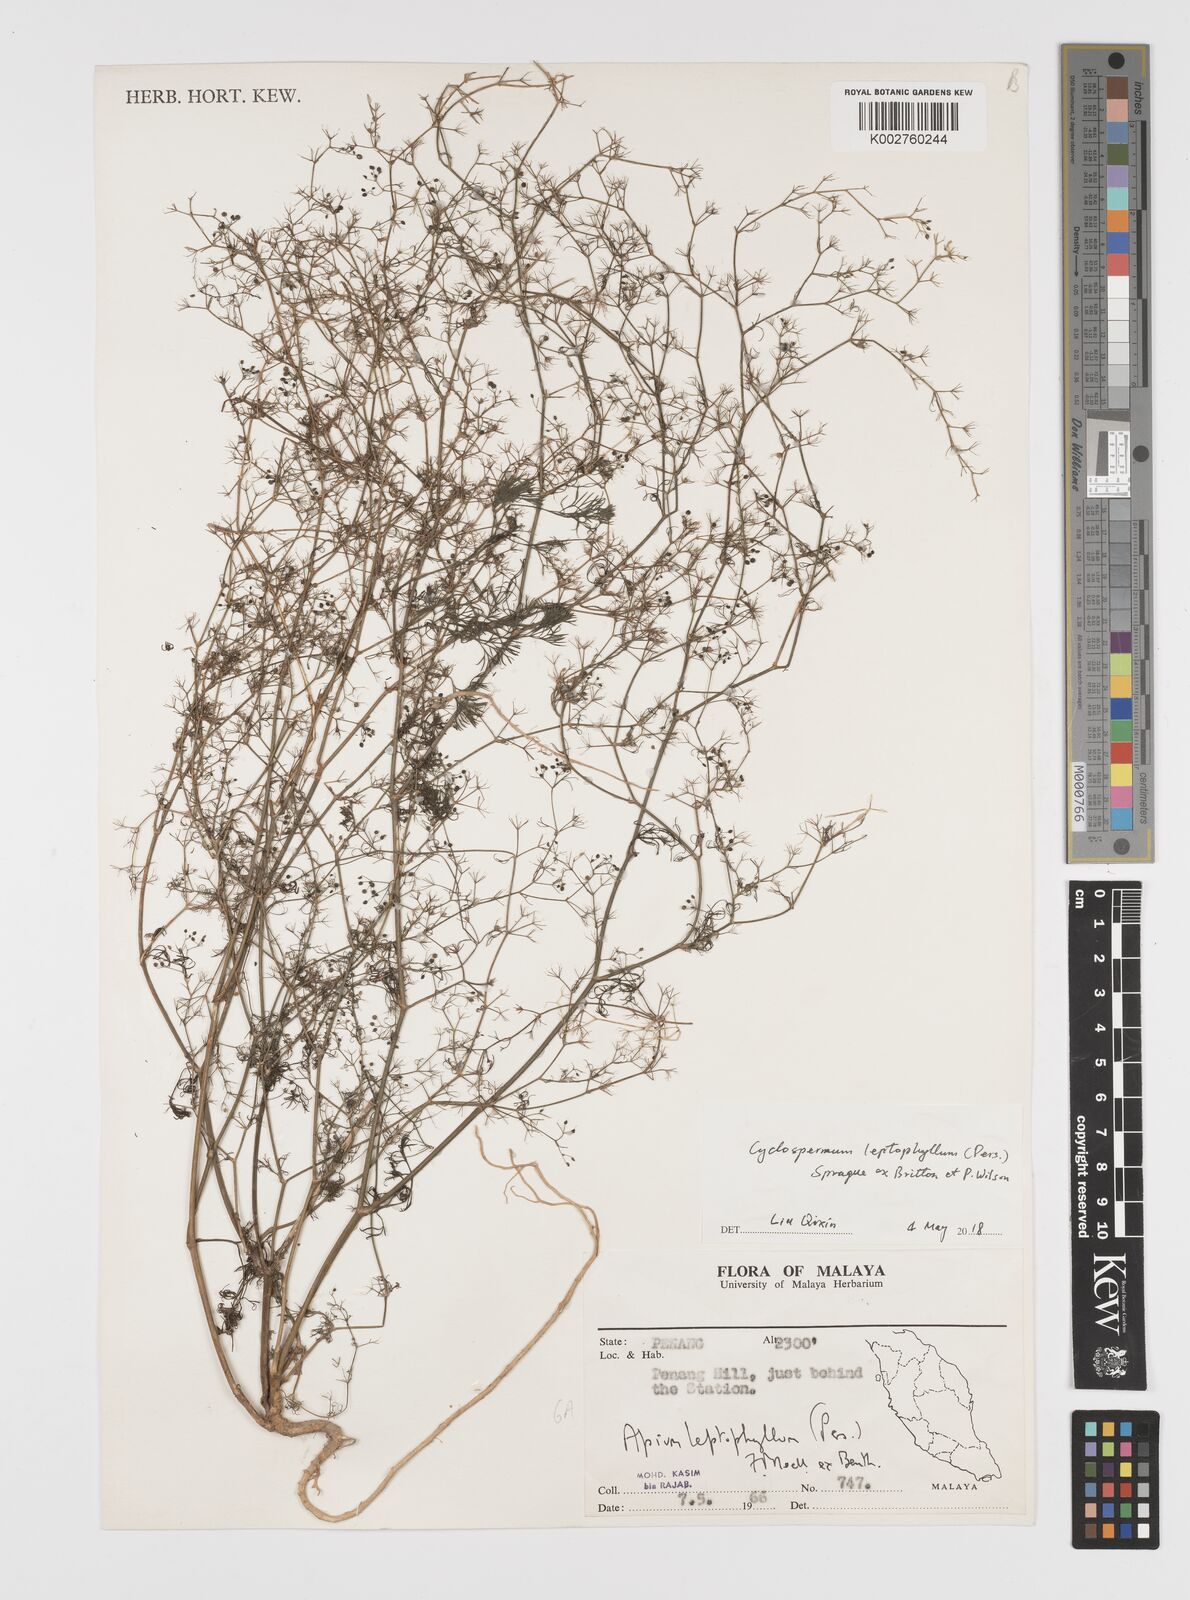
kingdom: Plantae
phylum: Tracheophyta
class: Magnoliopsida
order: Apiales
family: Apiaceae
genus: Cyclospermum
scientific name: Cyclospermum leptophyllum
